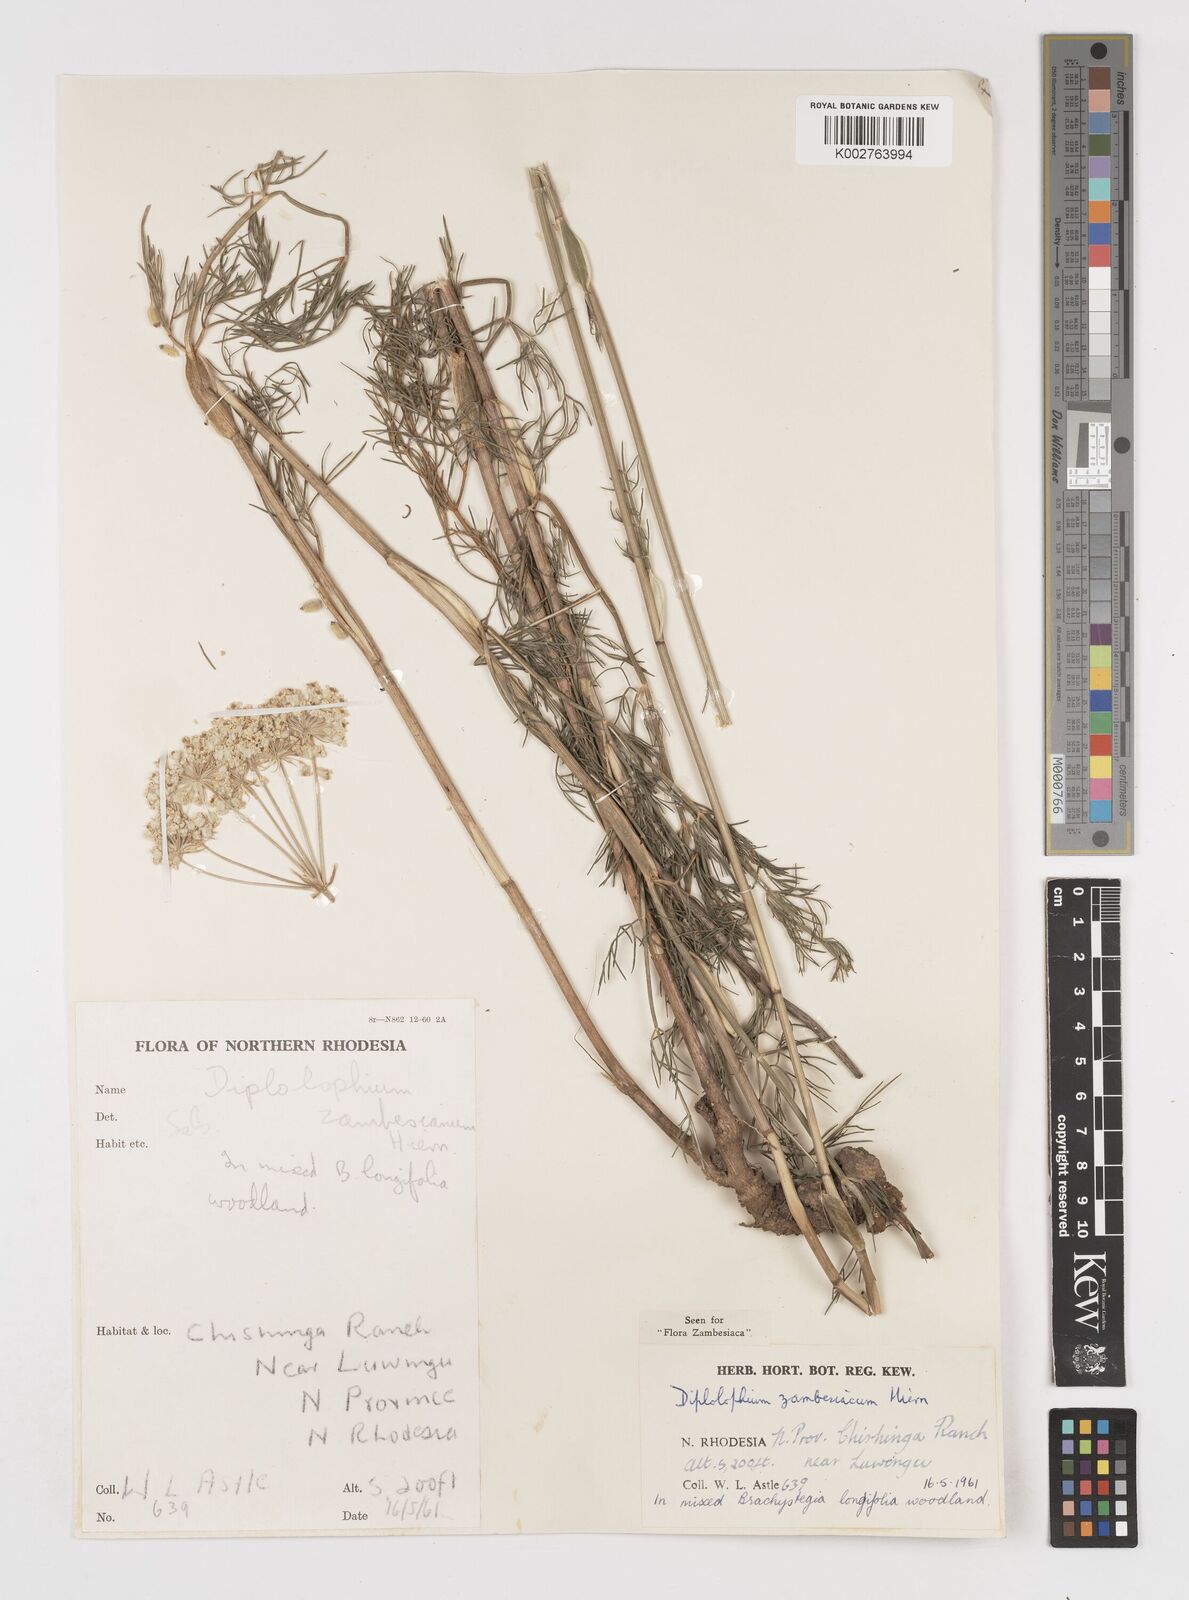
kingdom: Plantae
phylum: Tracheophyta
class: Magnoliopsida
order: Apiales
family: Apiaceae
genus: Diplolophium
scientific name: Diplolophium zambesianum
